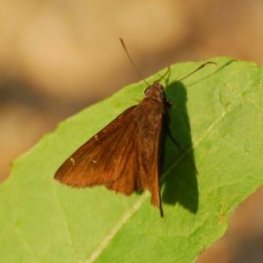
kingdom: Animalia
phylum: Arthropoda
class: Insecta
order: Lepidoptera
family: Hesperiidae
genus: Autochton
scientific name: Autochton
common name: Northern Cloudywing
